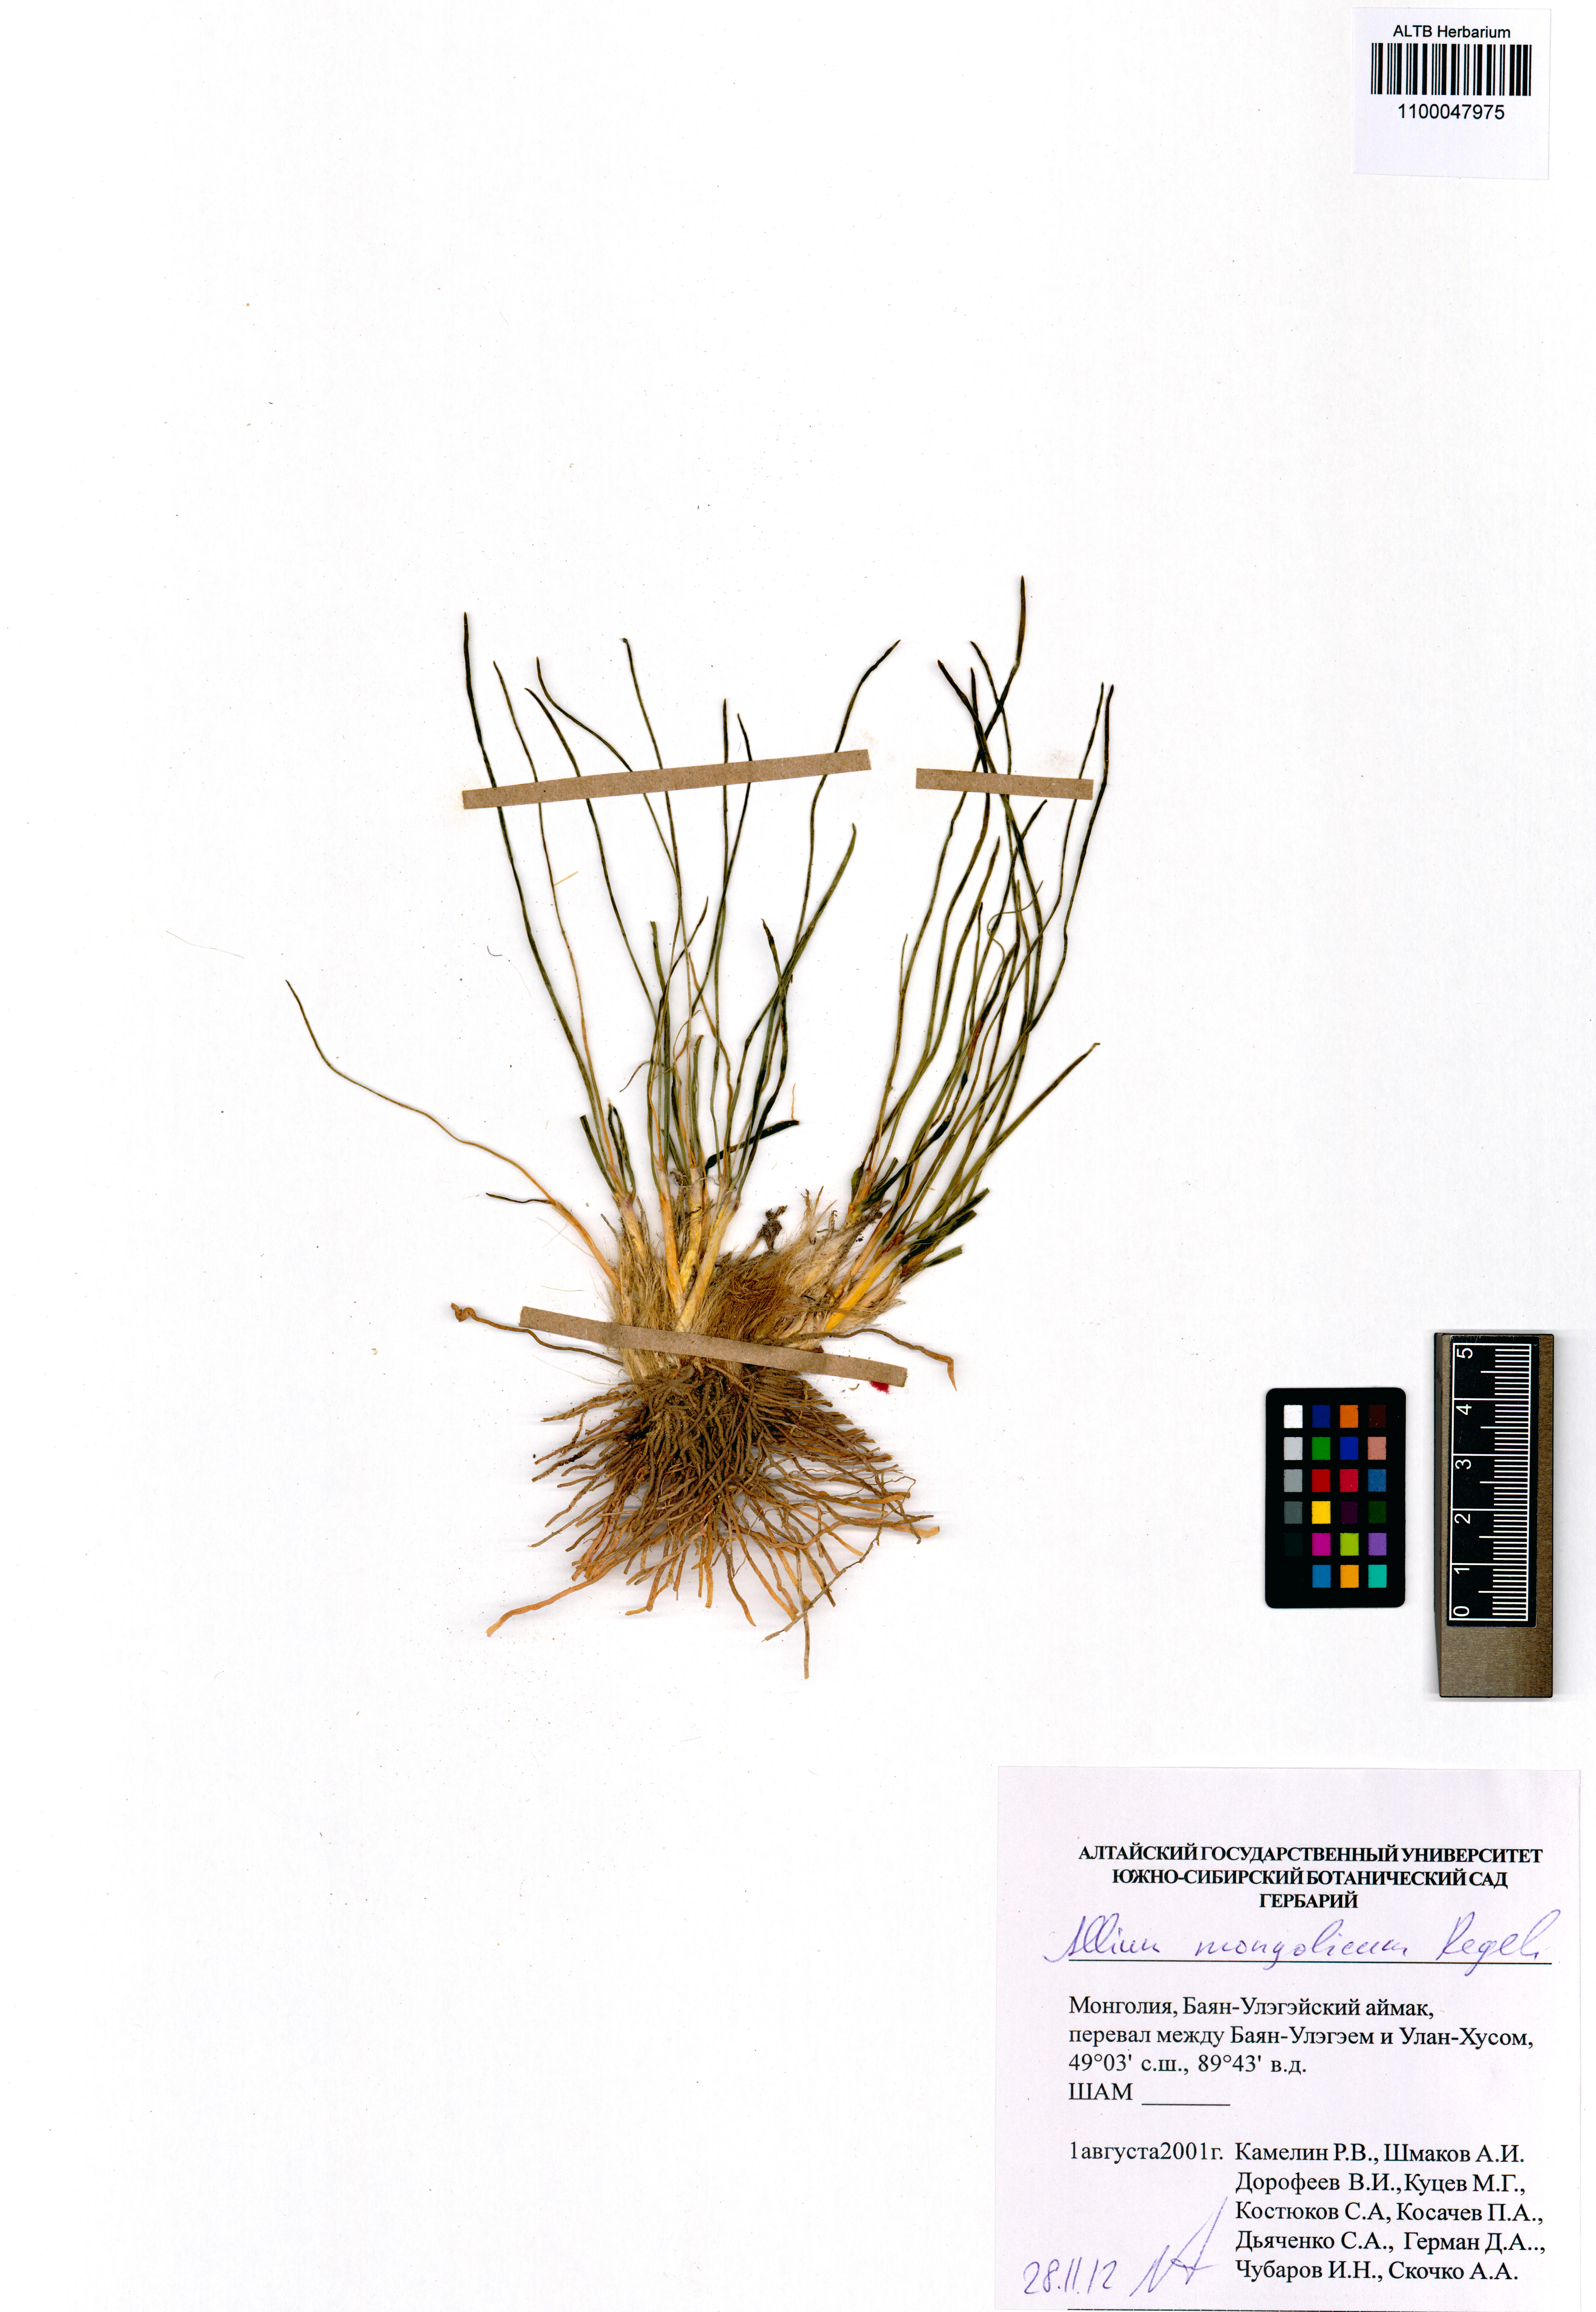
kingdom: Plantae
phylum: Tracheophyta
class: Liliopsida
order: Asparagales
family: Amaryllidaceae
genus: Allium
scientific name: Allium mongolicum
